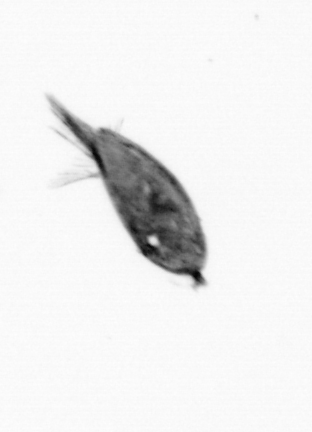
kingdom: Animalia
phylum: Arthropoda
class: Maxillopoda
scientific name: Maxillopoda
